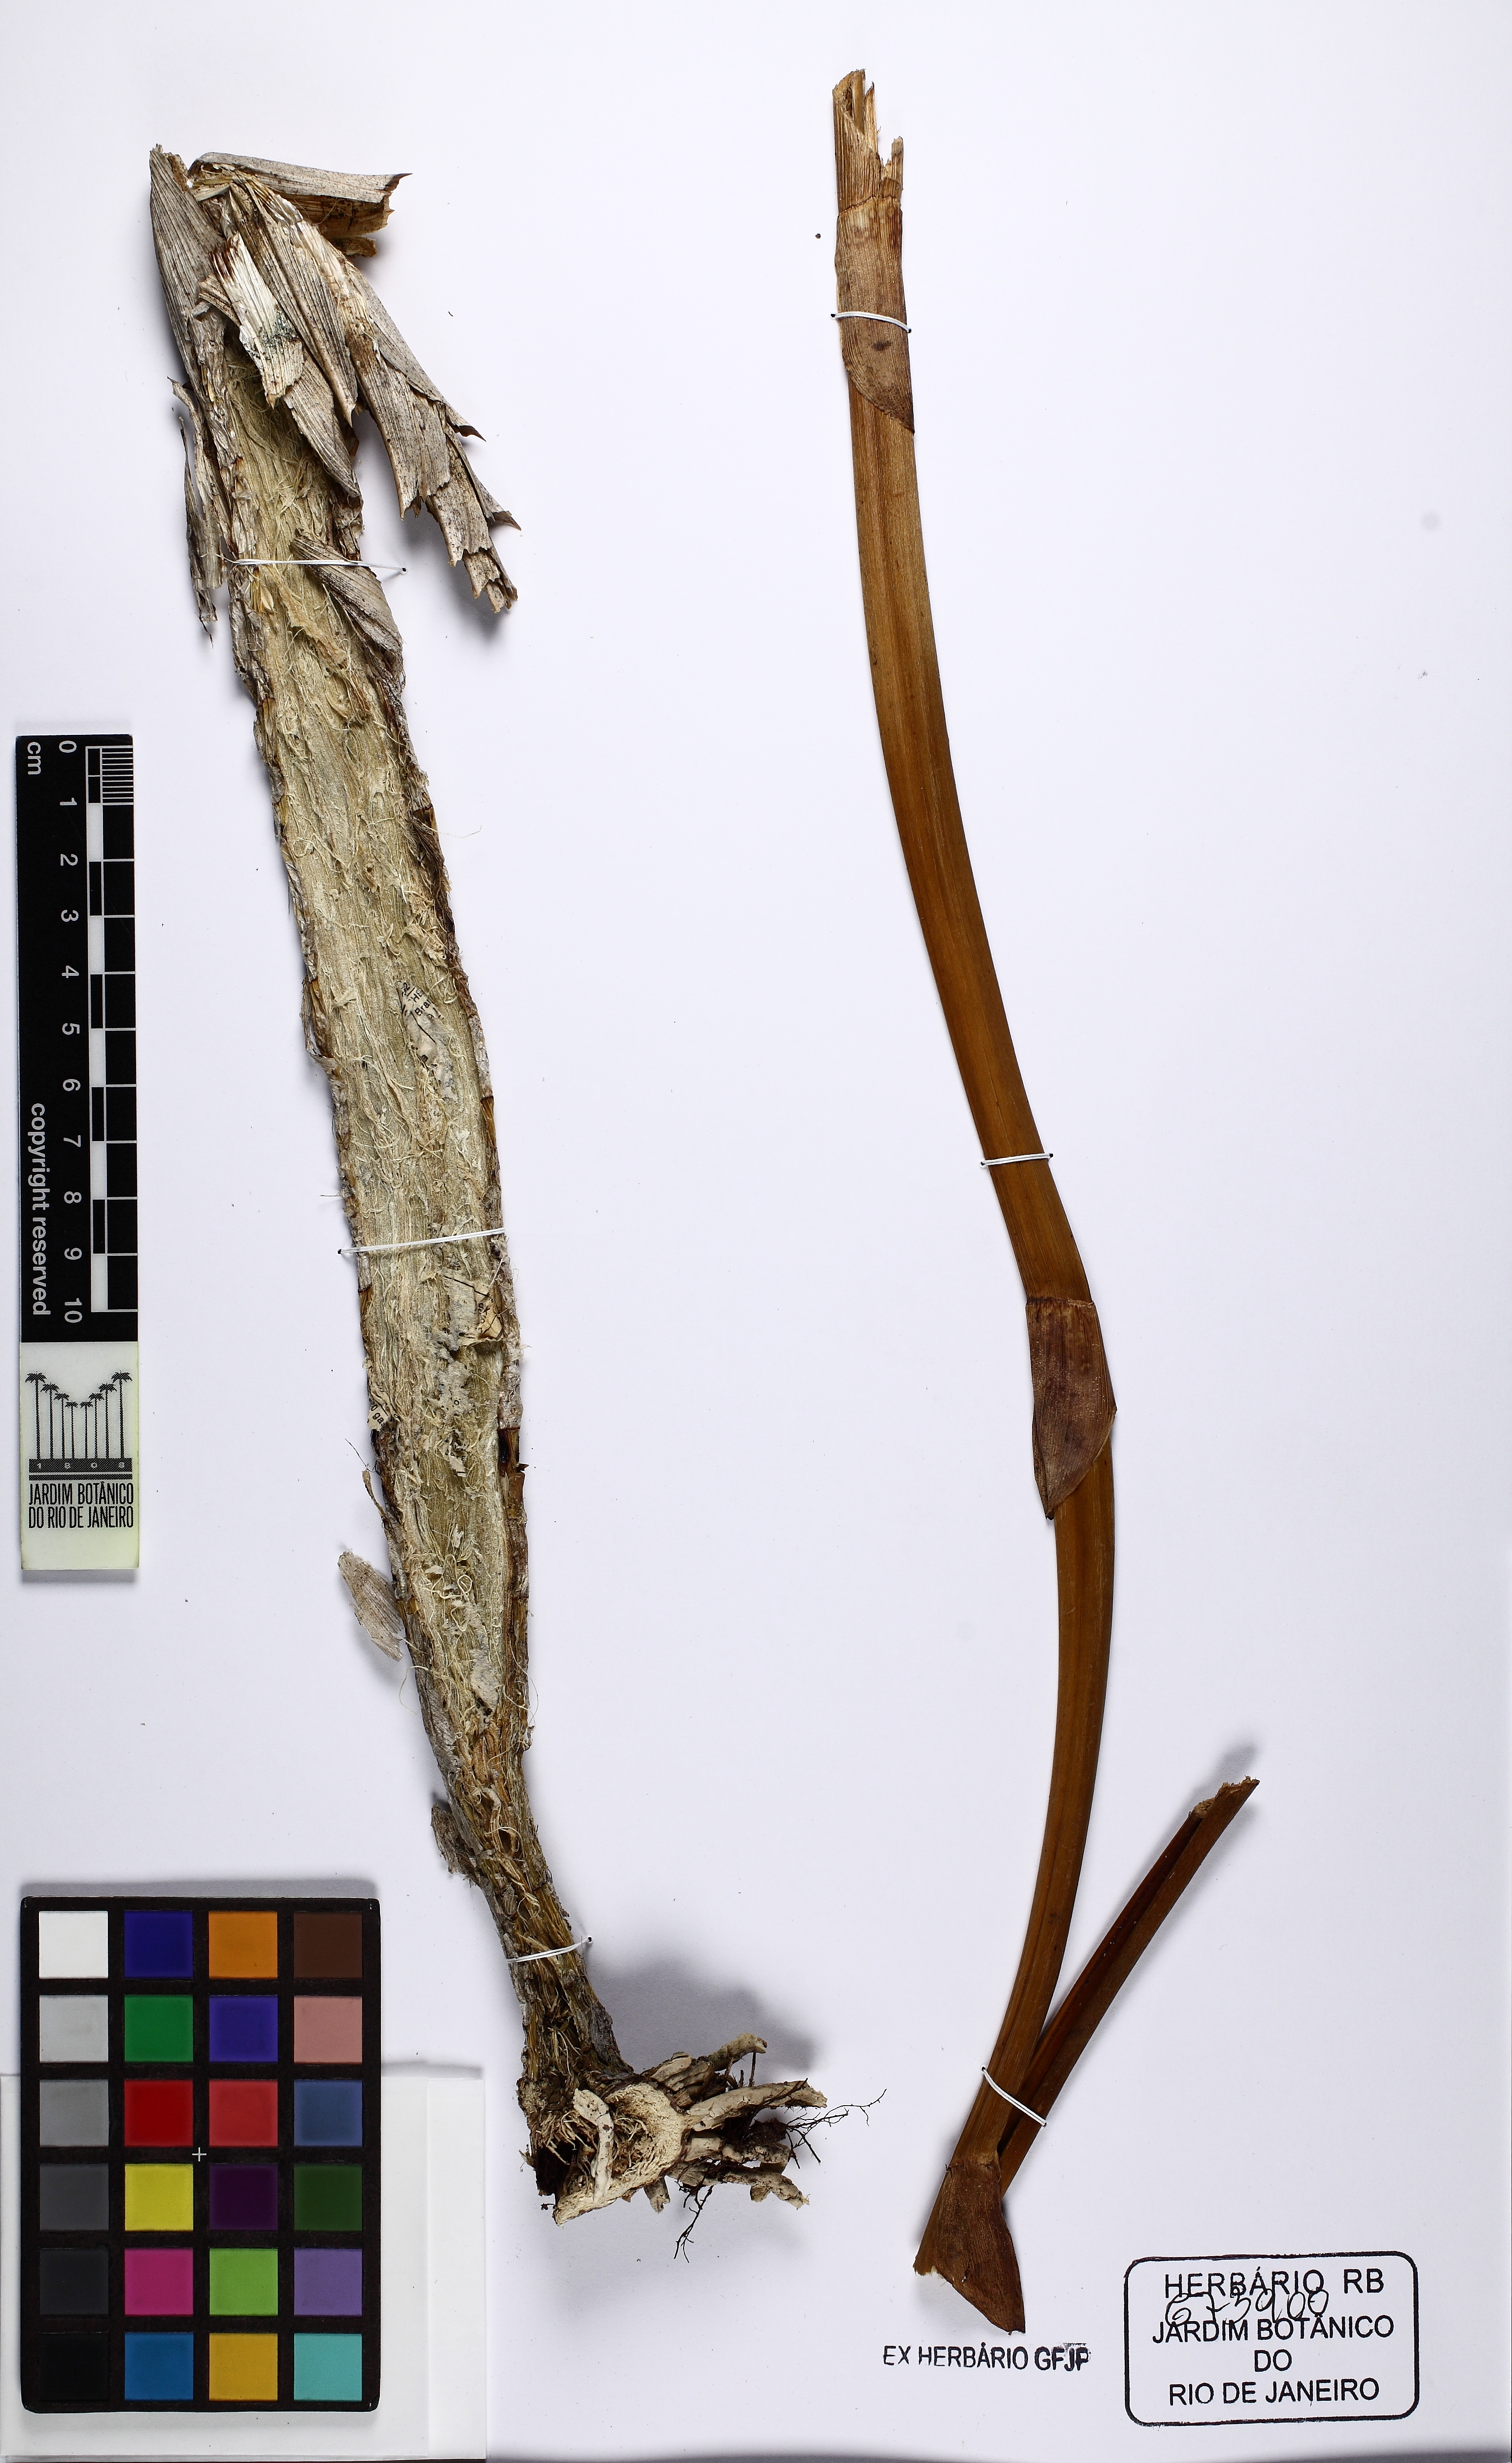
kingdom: Plantae
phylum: Tracheophyta
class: Liliopsida
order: Asparagales
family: Orchidaceae
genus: Cyrtopodium
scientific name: Cyrtopodium andersonii
